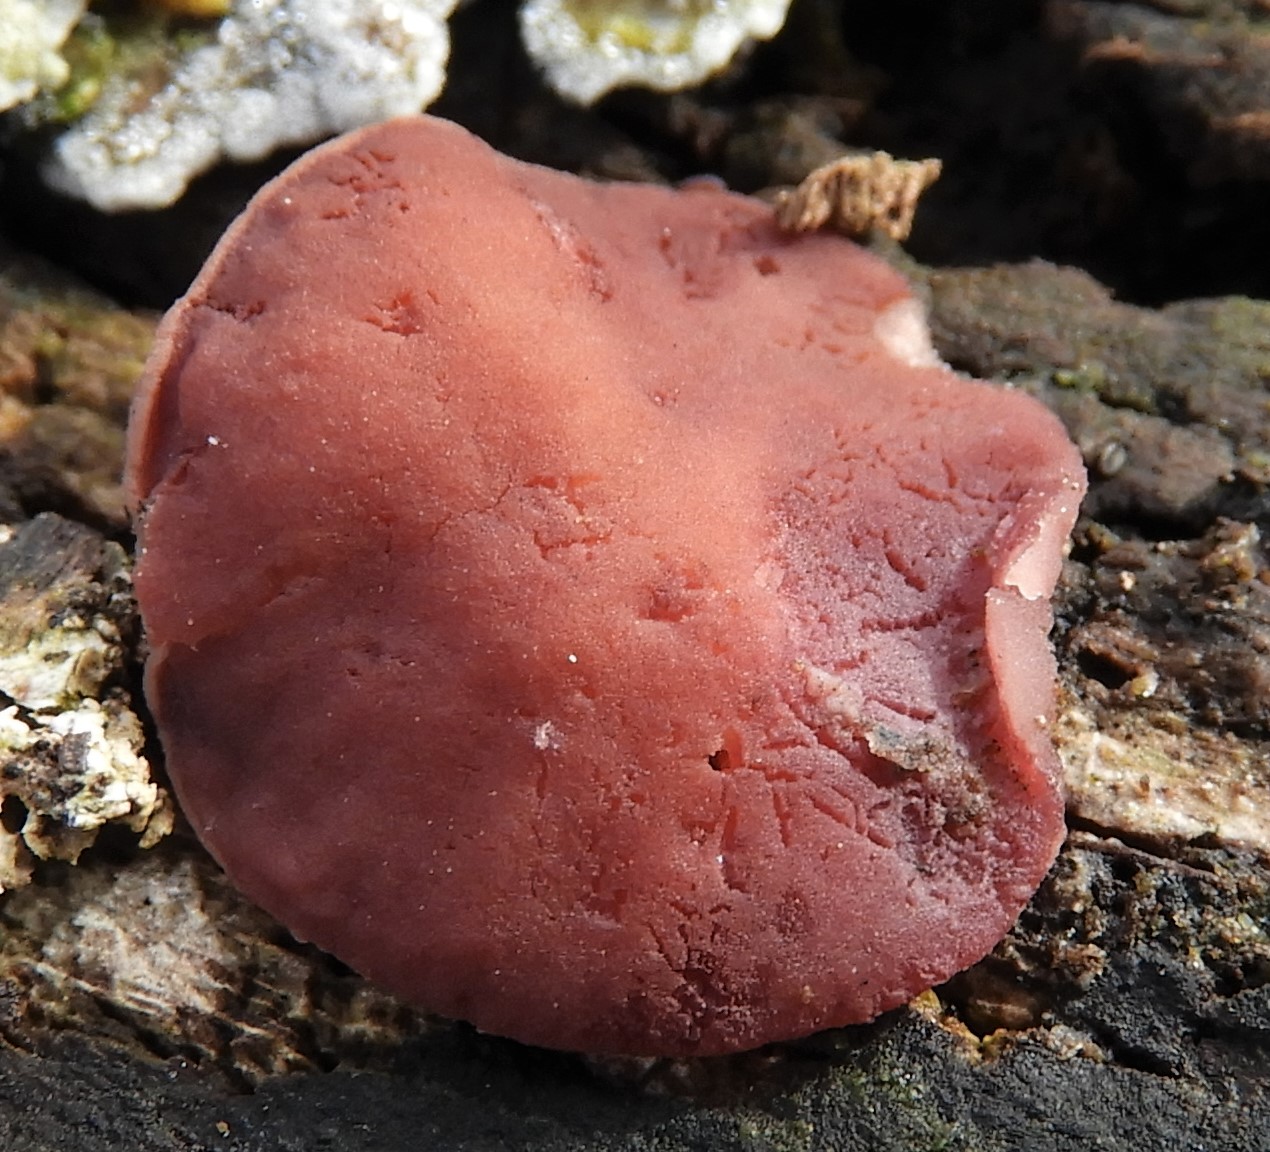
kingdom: Fungi
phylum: Ascomycota
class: Leotiomycetes
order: Helotiales
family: Gelatinodiscaceae
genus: Ascocoryne
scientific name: Ascocoryne cylichnium
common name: stor sejskive
